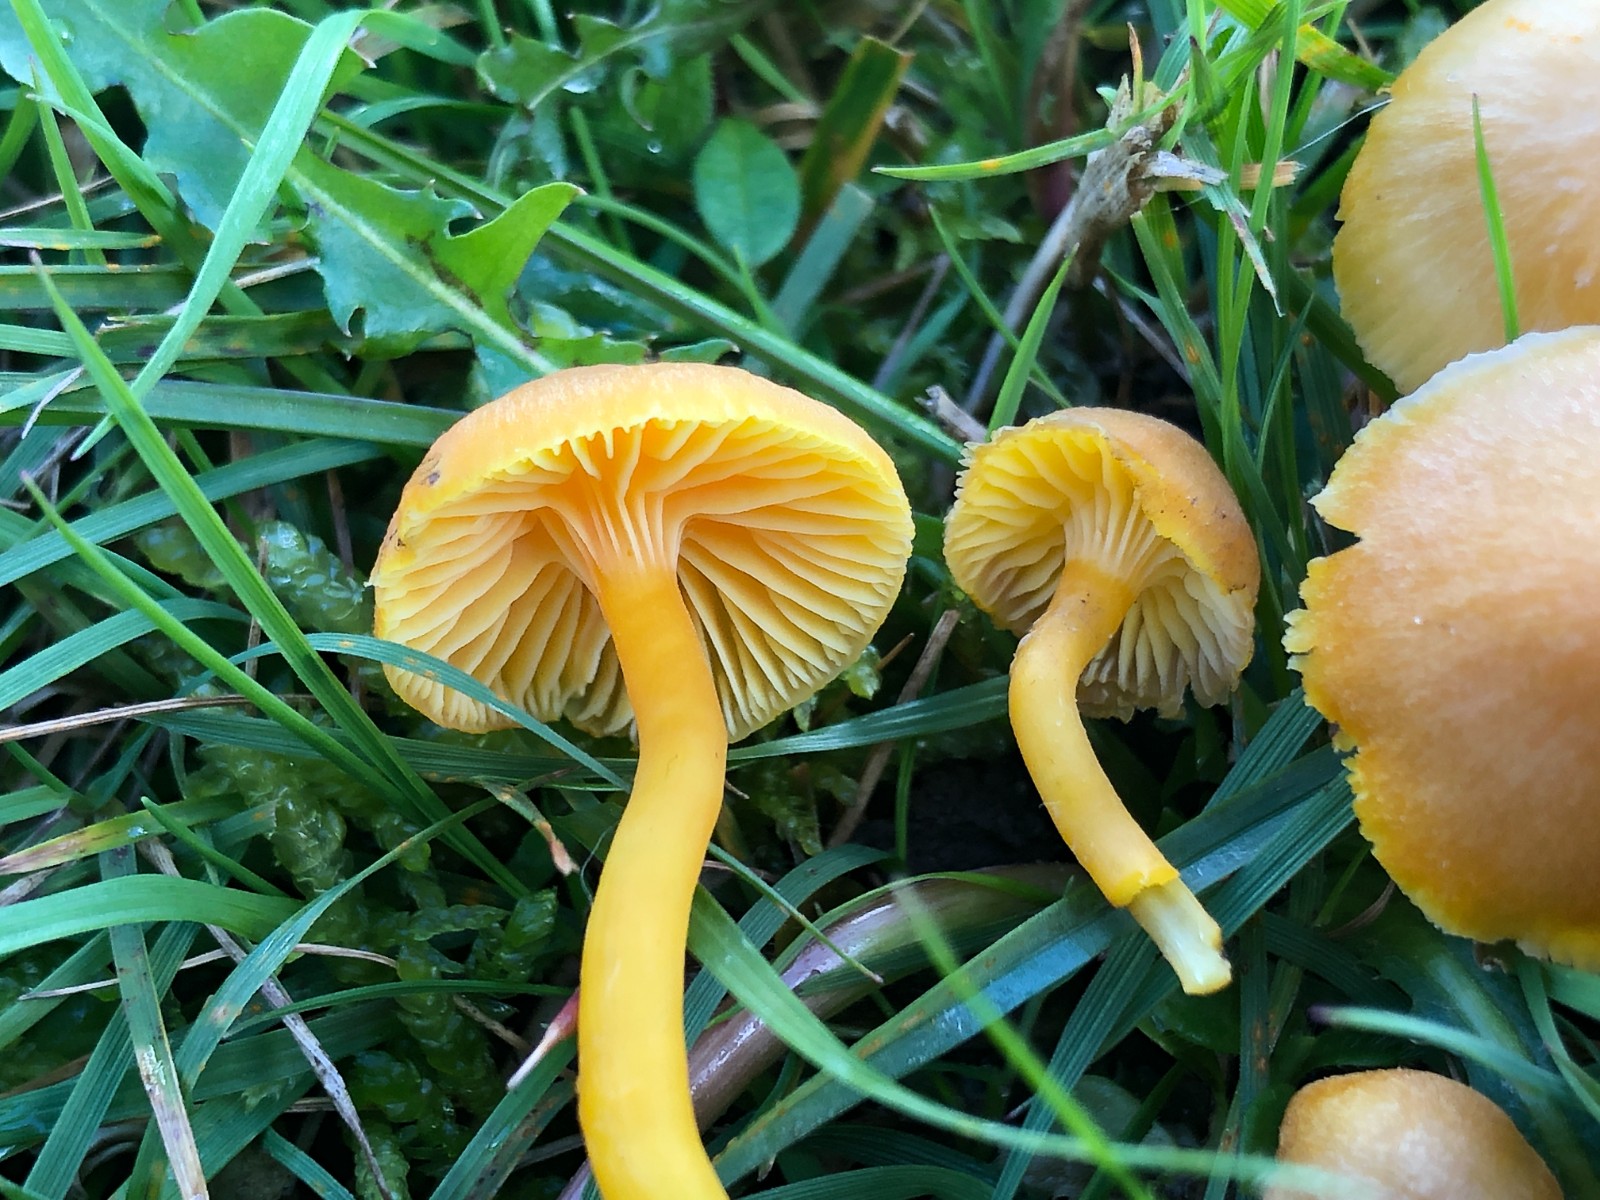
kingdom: Fungi
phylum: Basidiomycota
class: Agaricomycetes
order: Agaricales
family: Hygrophoraceae
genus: Hygrocybe
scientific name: Hygrocybe reidii
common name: honning-vokshat
